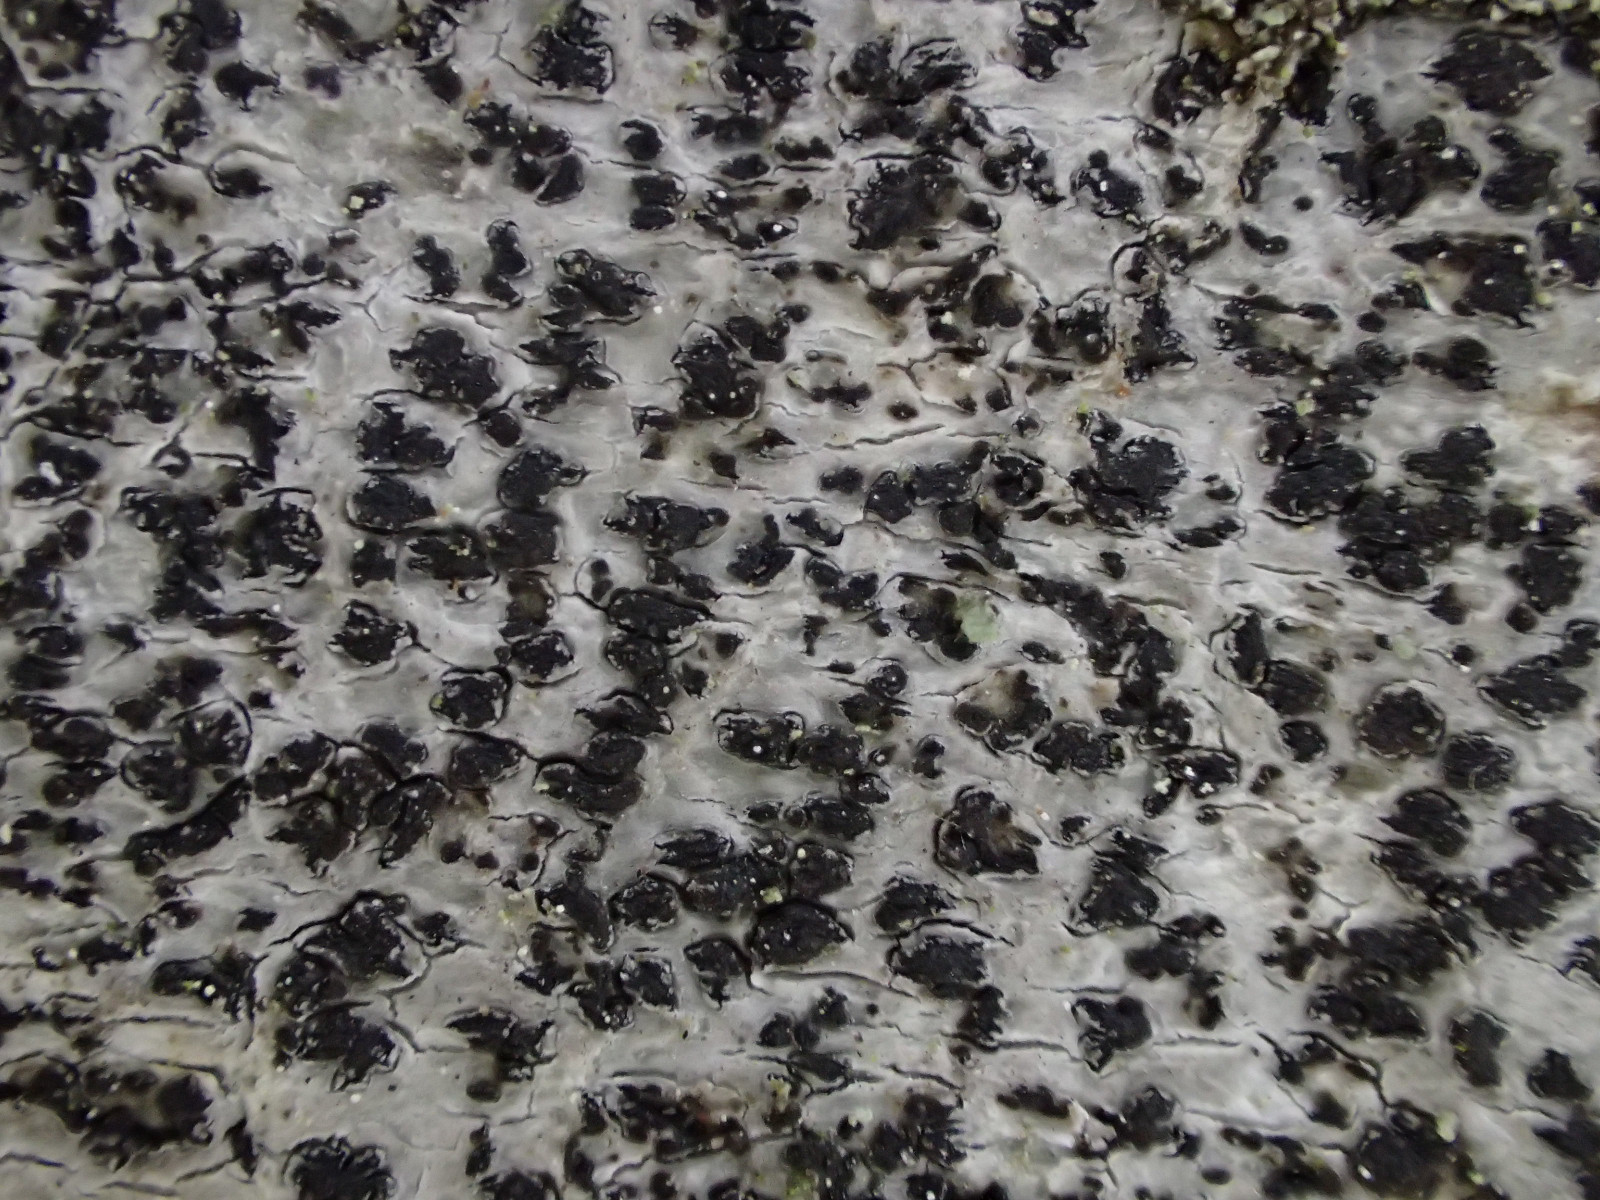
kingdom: Fungi
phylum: Ascomycota
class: Arthoniomycetes
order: Arthoniales
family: Arthoniaceae
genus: Arthonia
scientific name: Arthonia radiata
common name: stjerne-pletlav
